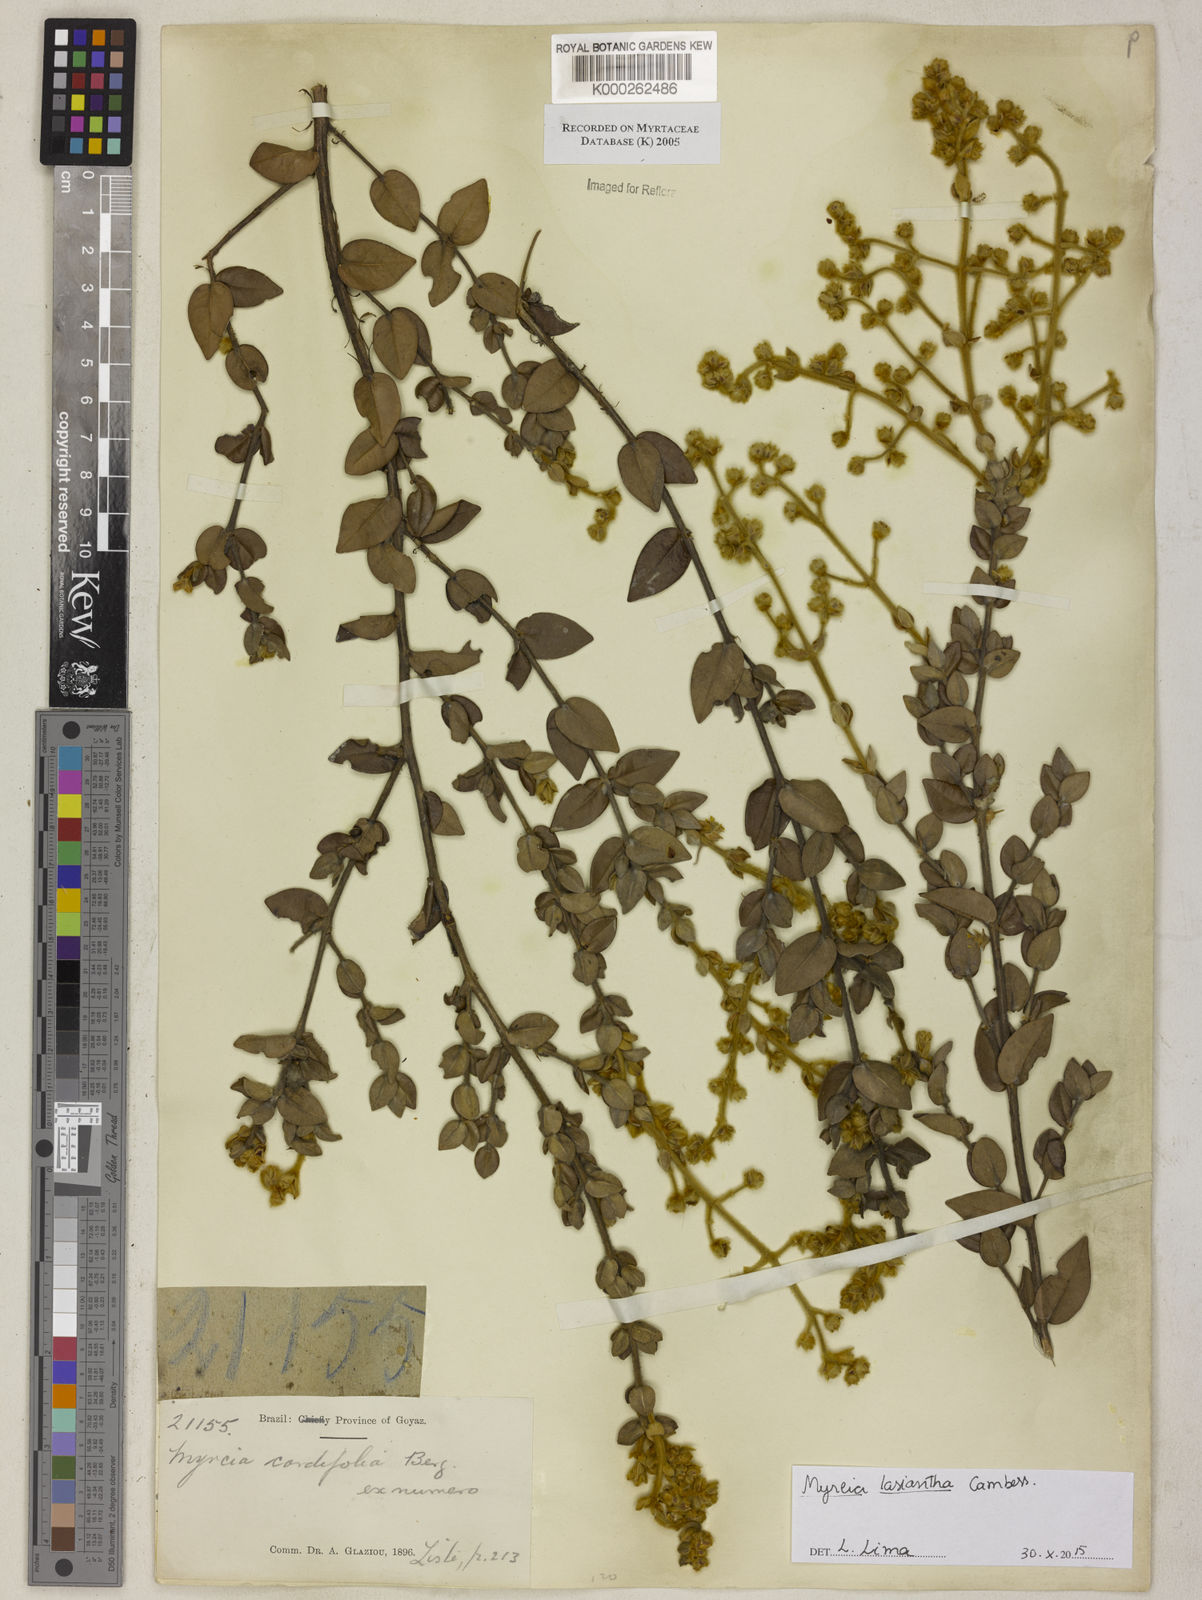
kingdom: Plantae
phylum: Tracheophyta
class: Magnoliopsida
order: Myrtales
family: Myrtaceae
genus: Myrcia
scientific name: Myrcia cordiifolia
